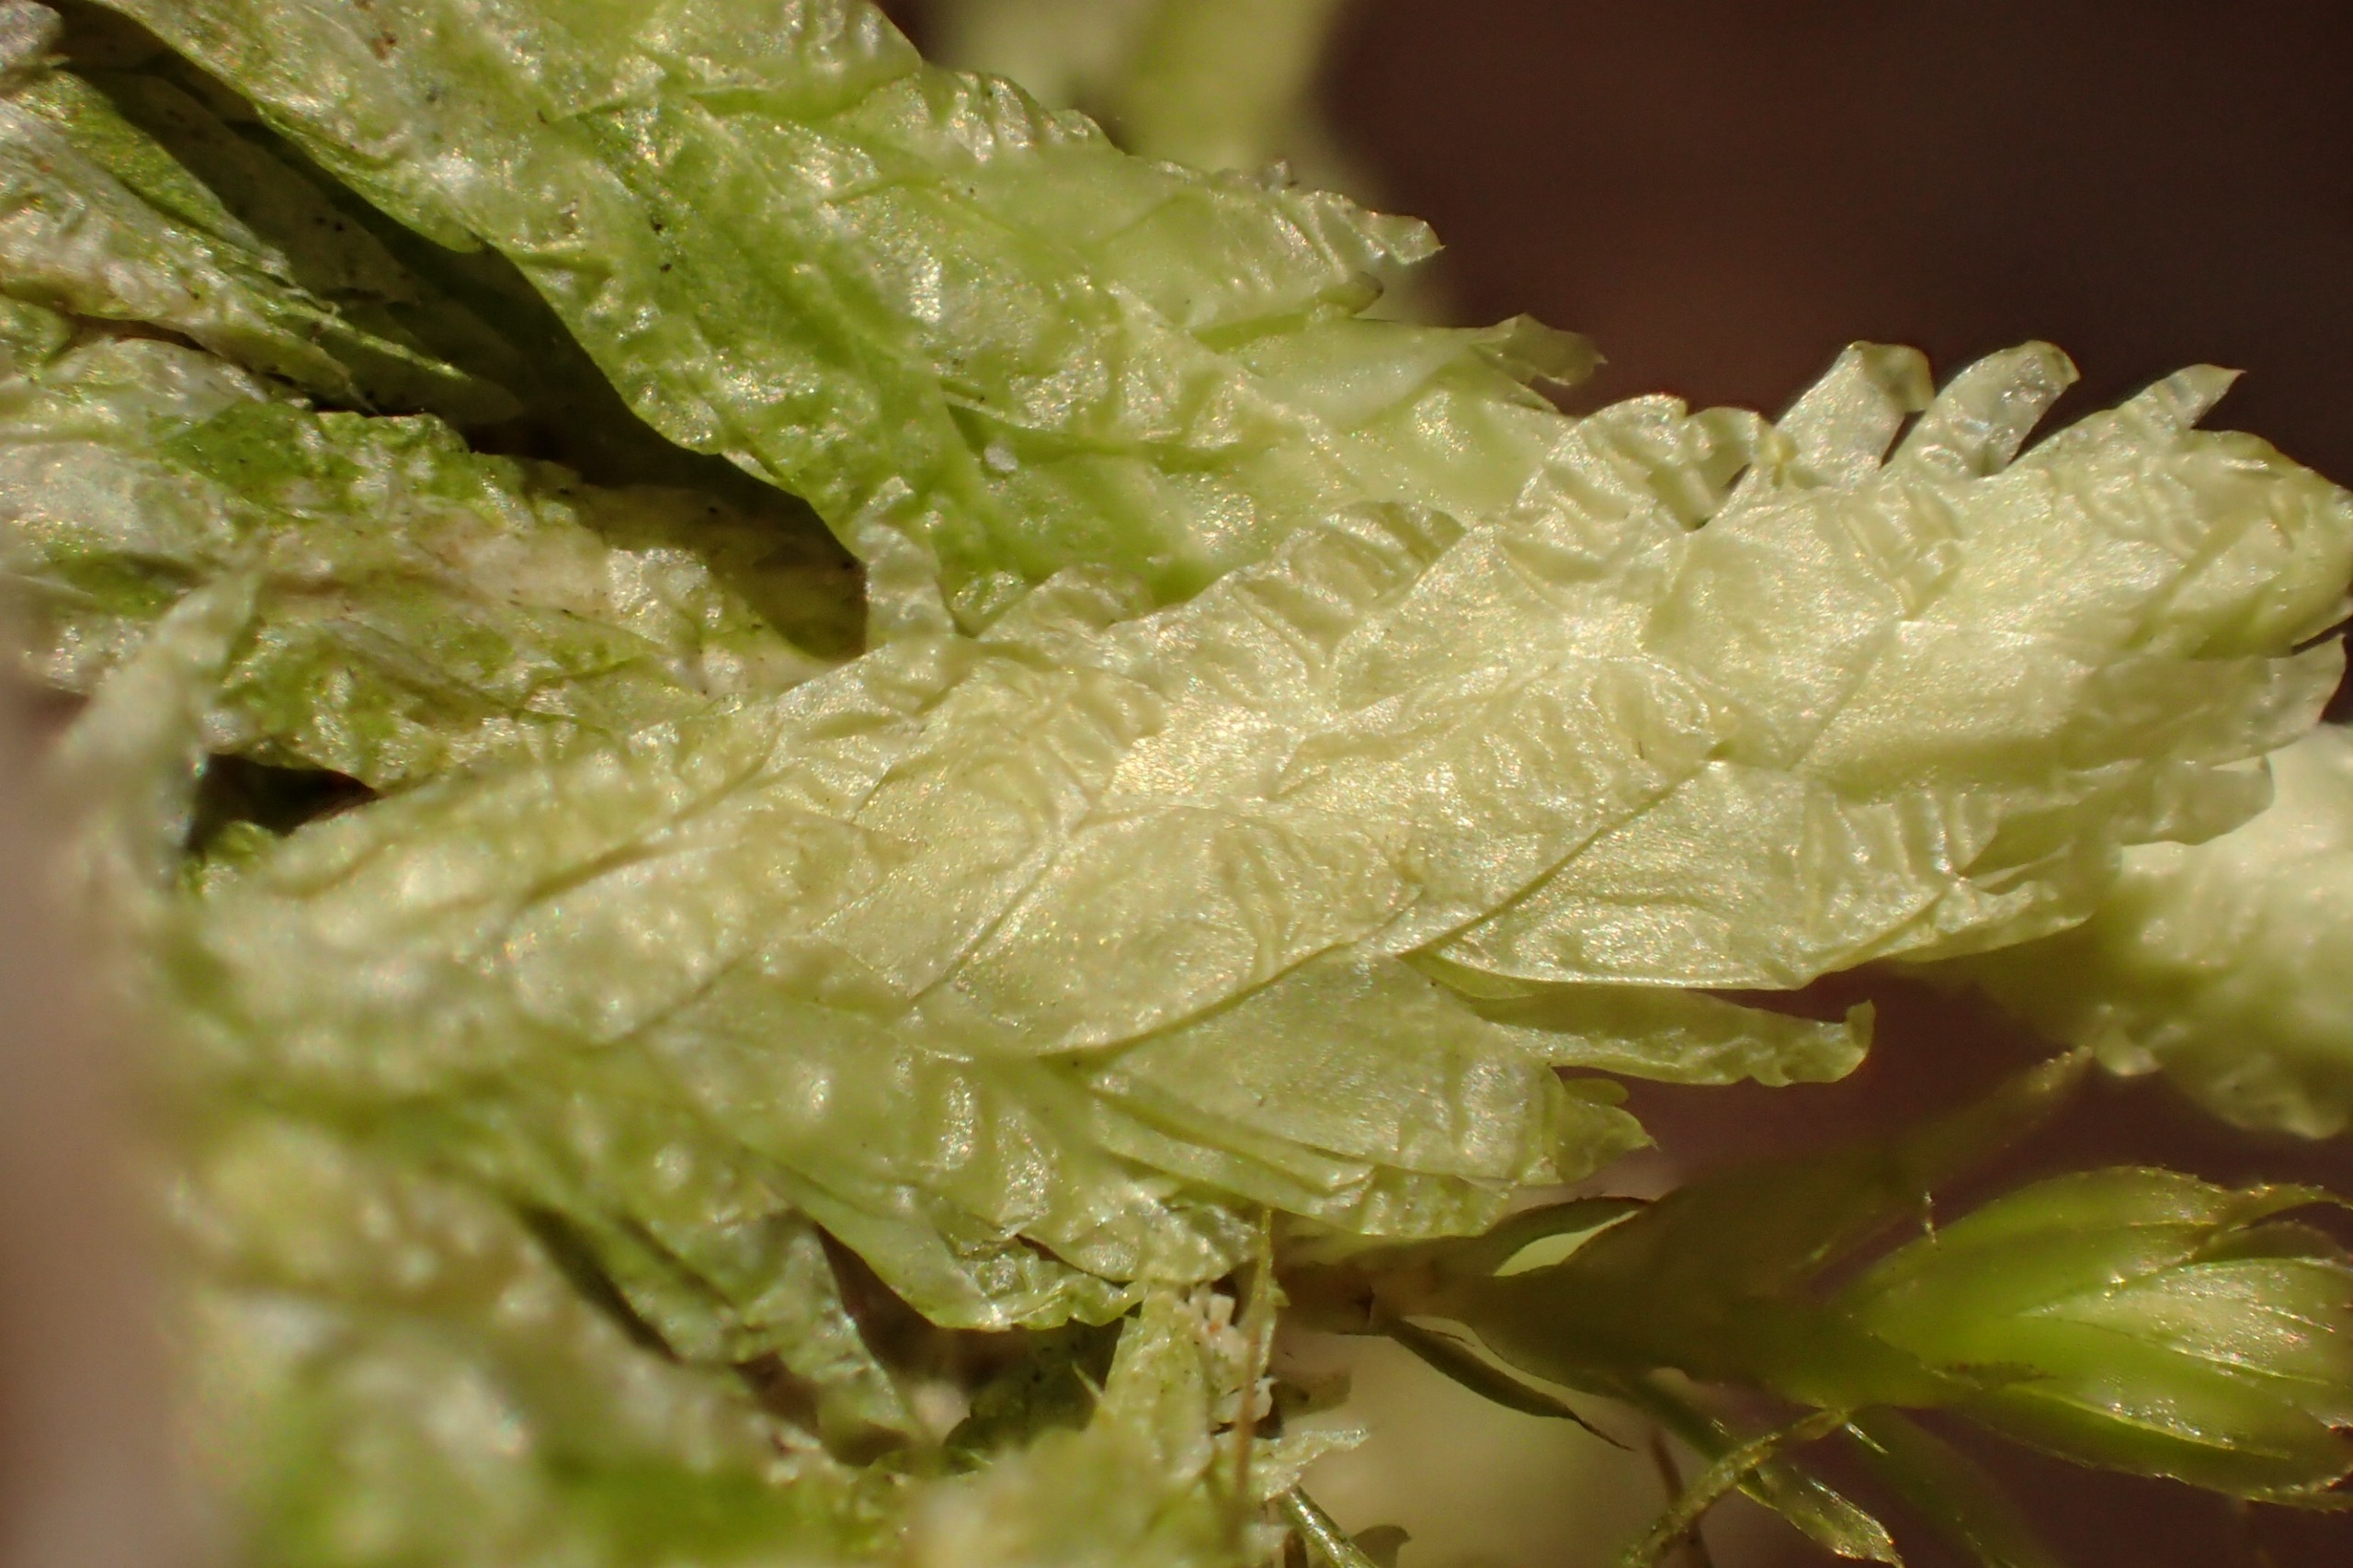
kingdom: Plantae
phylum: Bryophyta
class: Bryopsida
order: Hypnales
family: Plagiotheciaceae
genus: Plagiothecium
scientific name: Plagiothecium undulatum
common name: Bølget tæppemos
